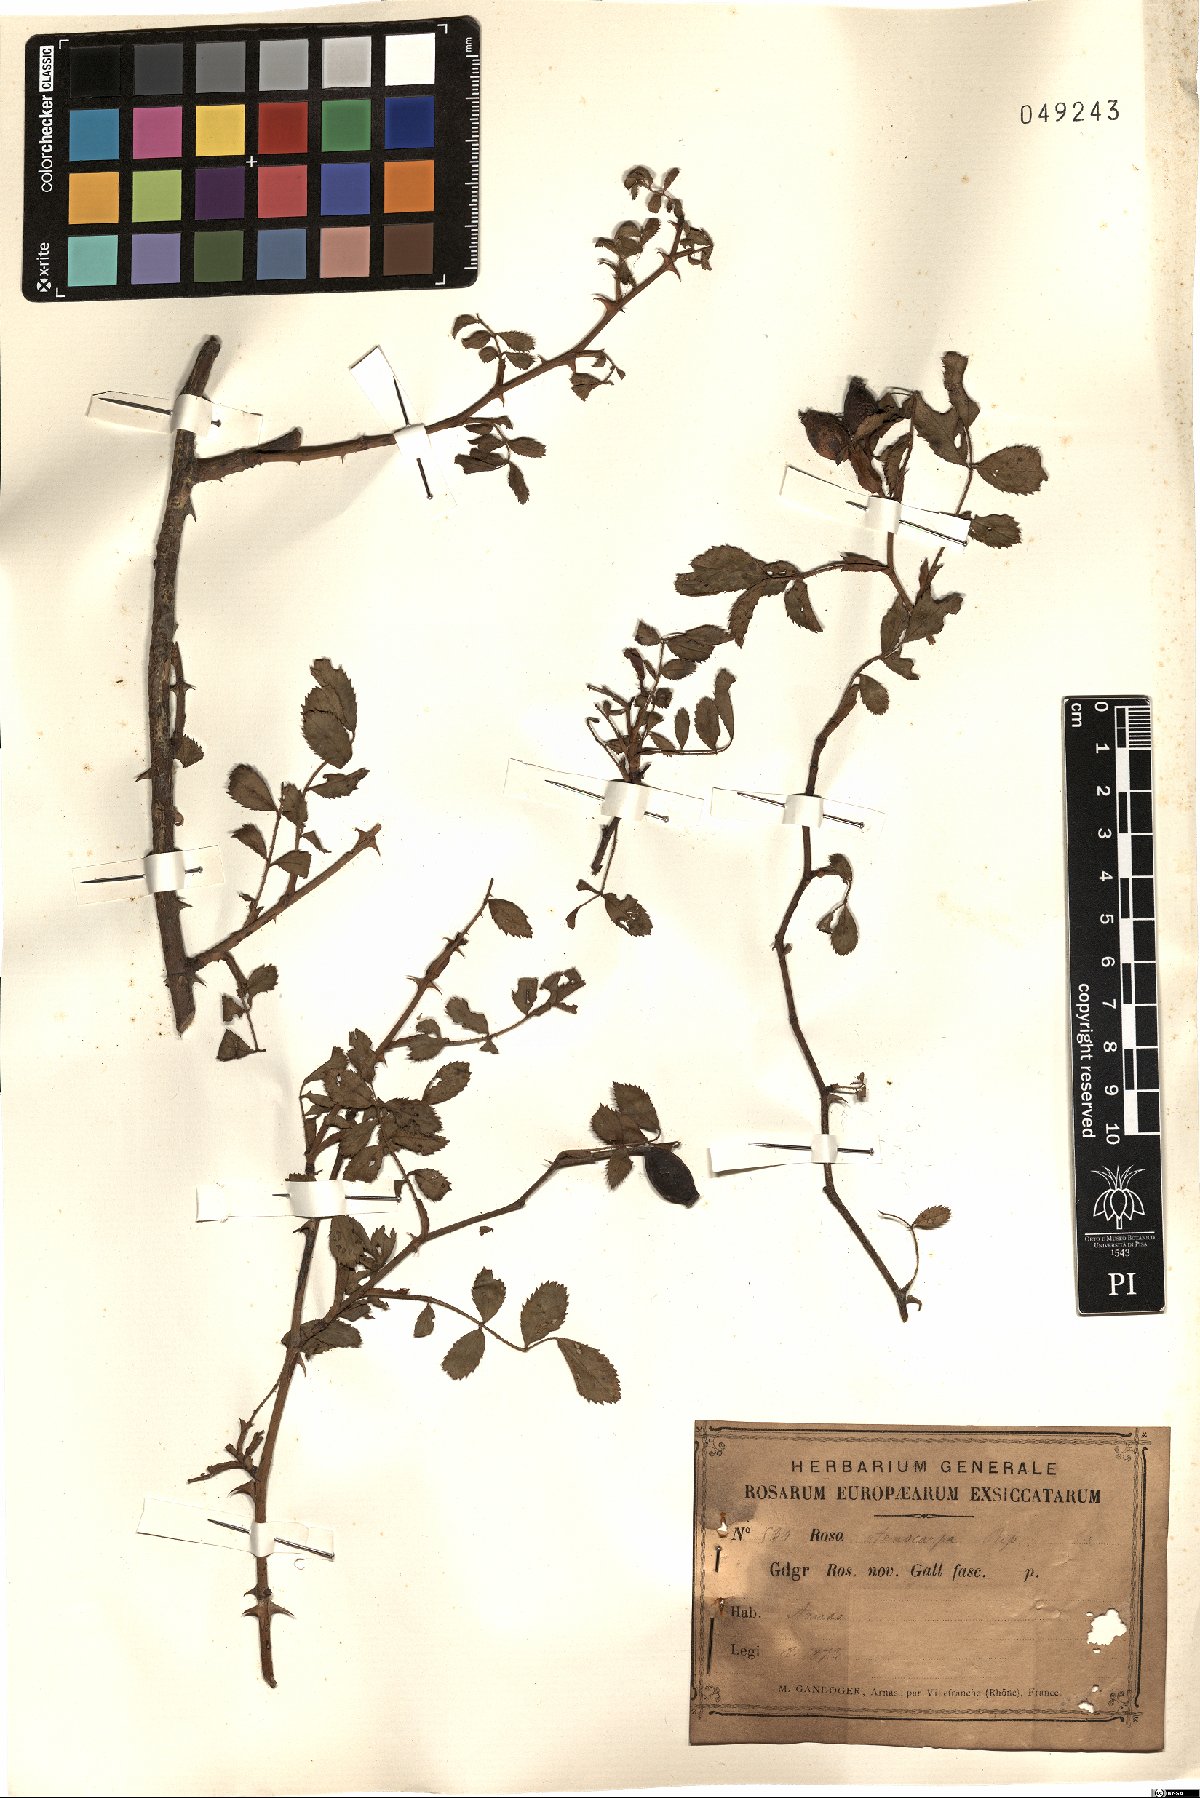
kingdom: Plantae
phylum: Tracheophyta
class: Magnoliopsida
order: Rosales
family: Rosaceae
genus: Rosa
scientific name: Rosa canina
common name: Dog rose
